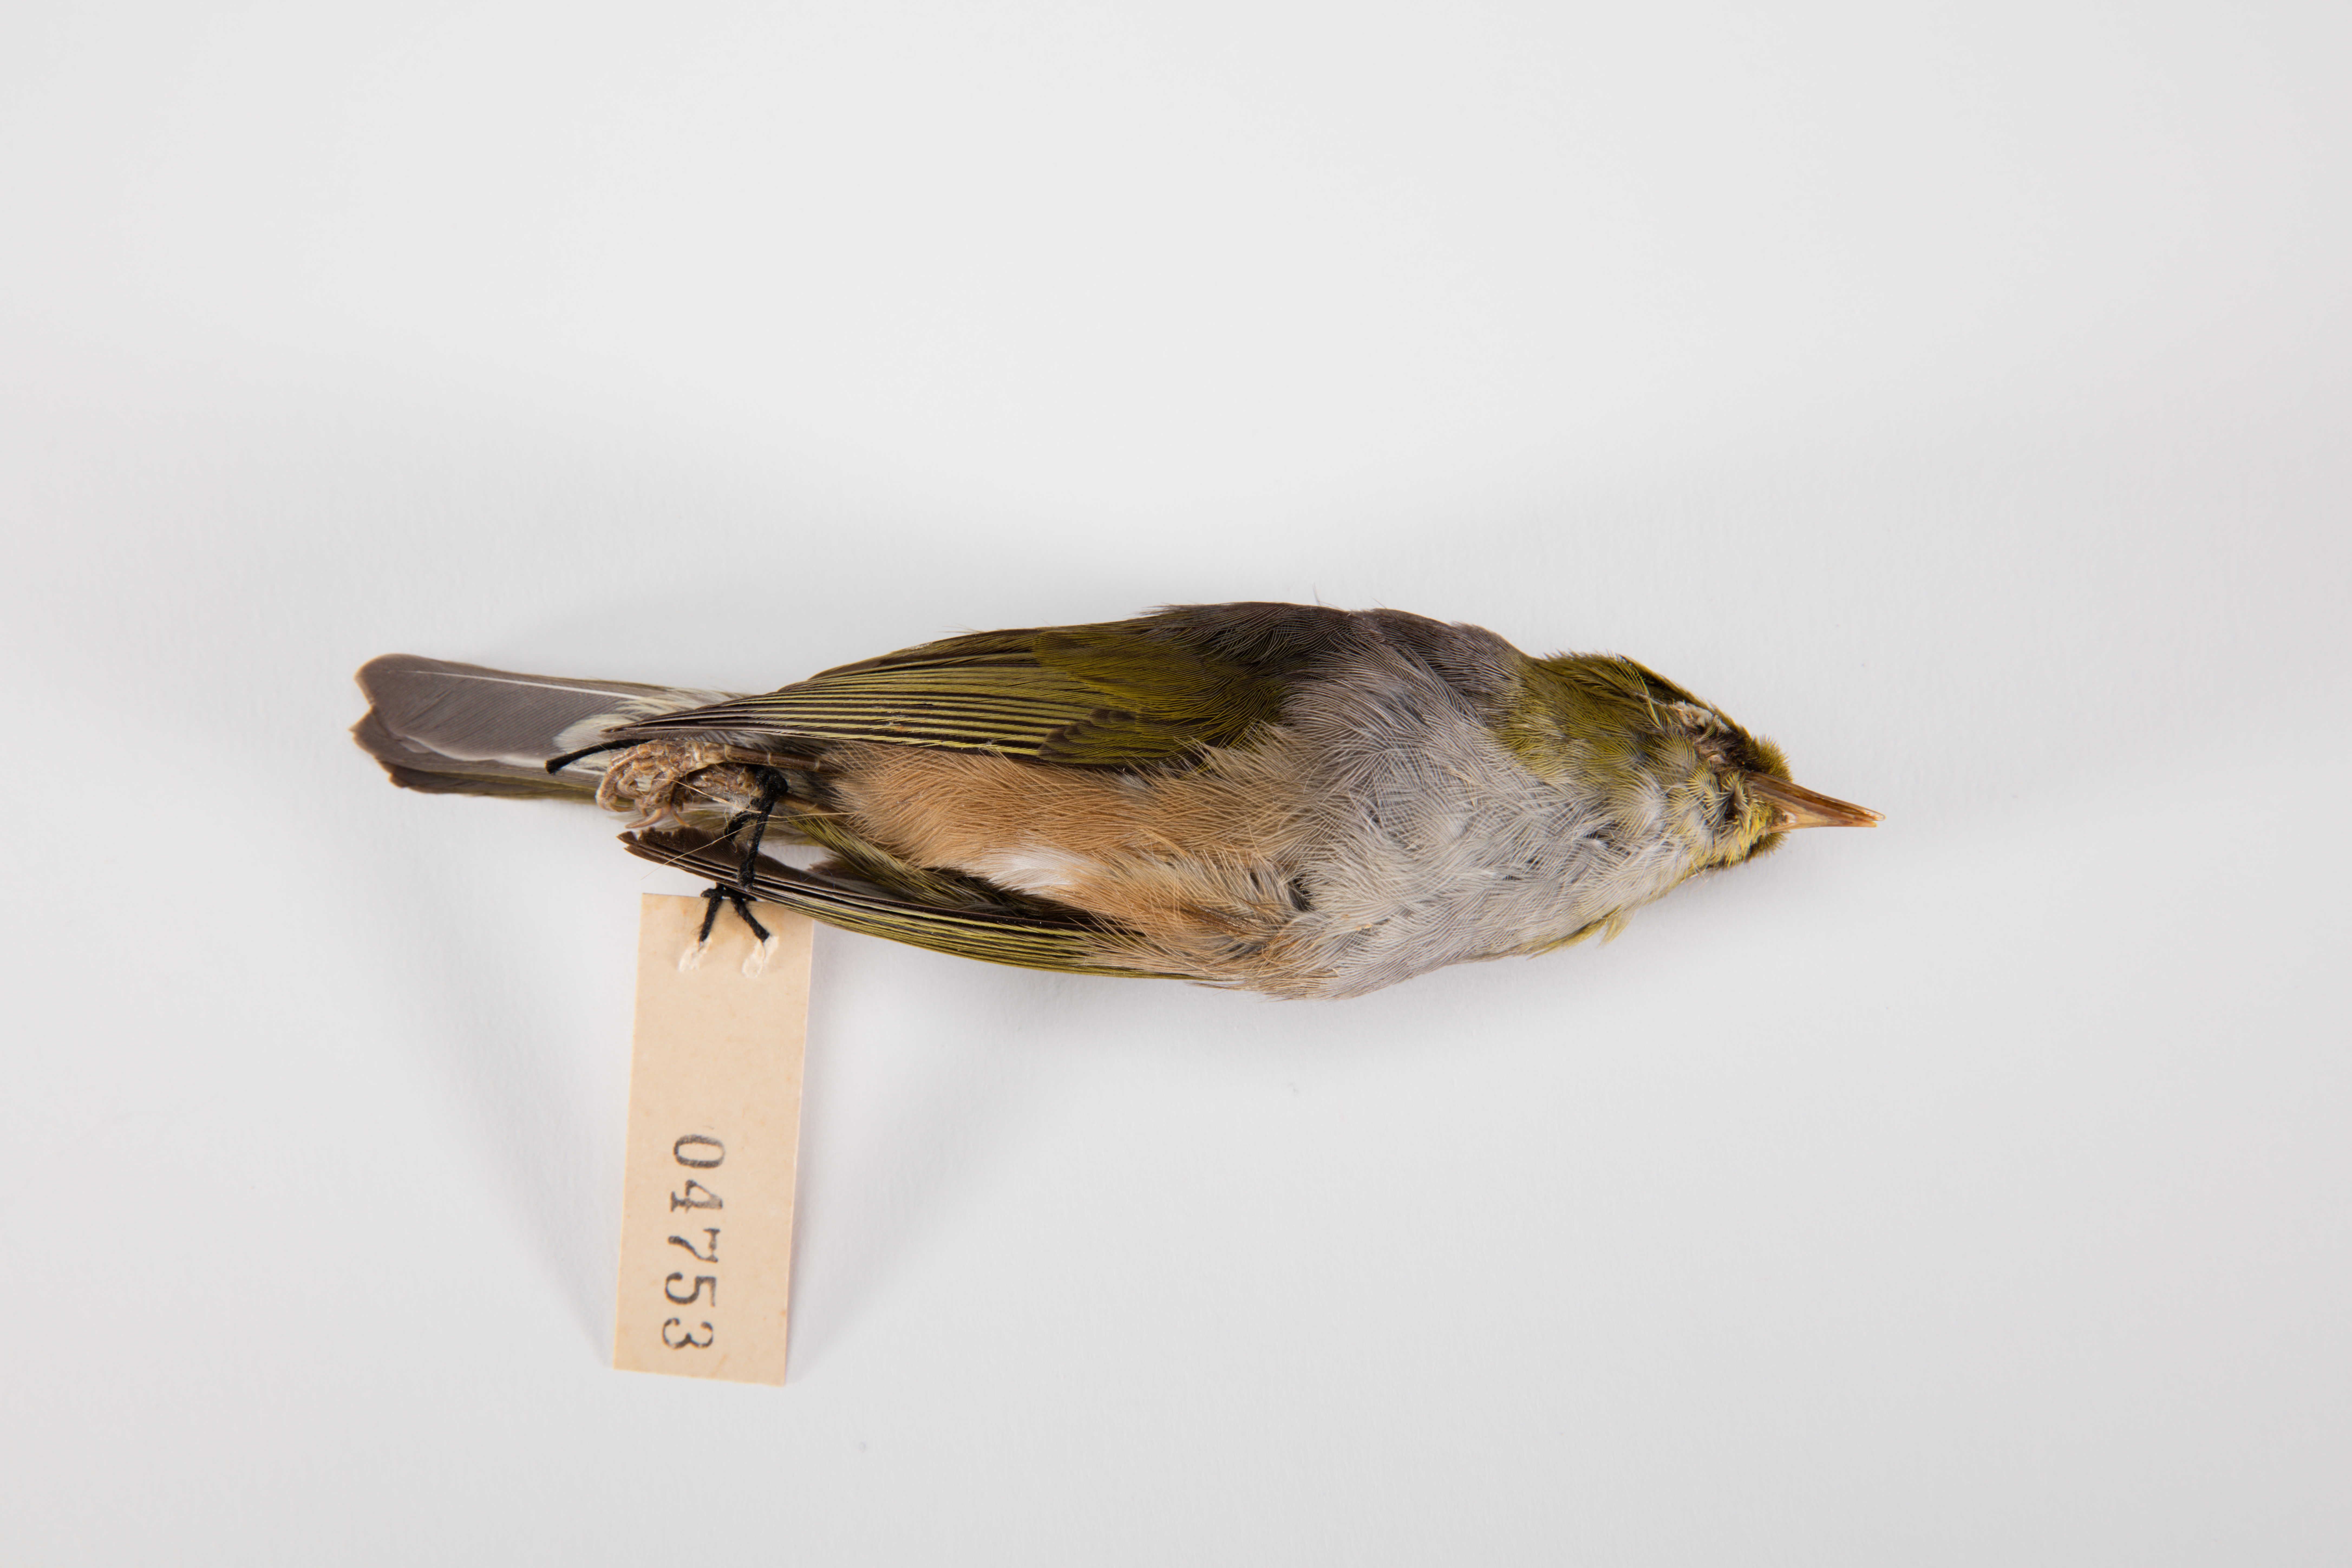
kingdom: Animalia
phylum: Chordata
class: Aves
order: Passeriformes
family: Zosteropidae
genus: Zosterops
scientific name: Zosterops lateralis
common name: Silvereye
